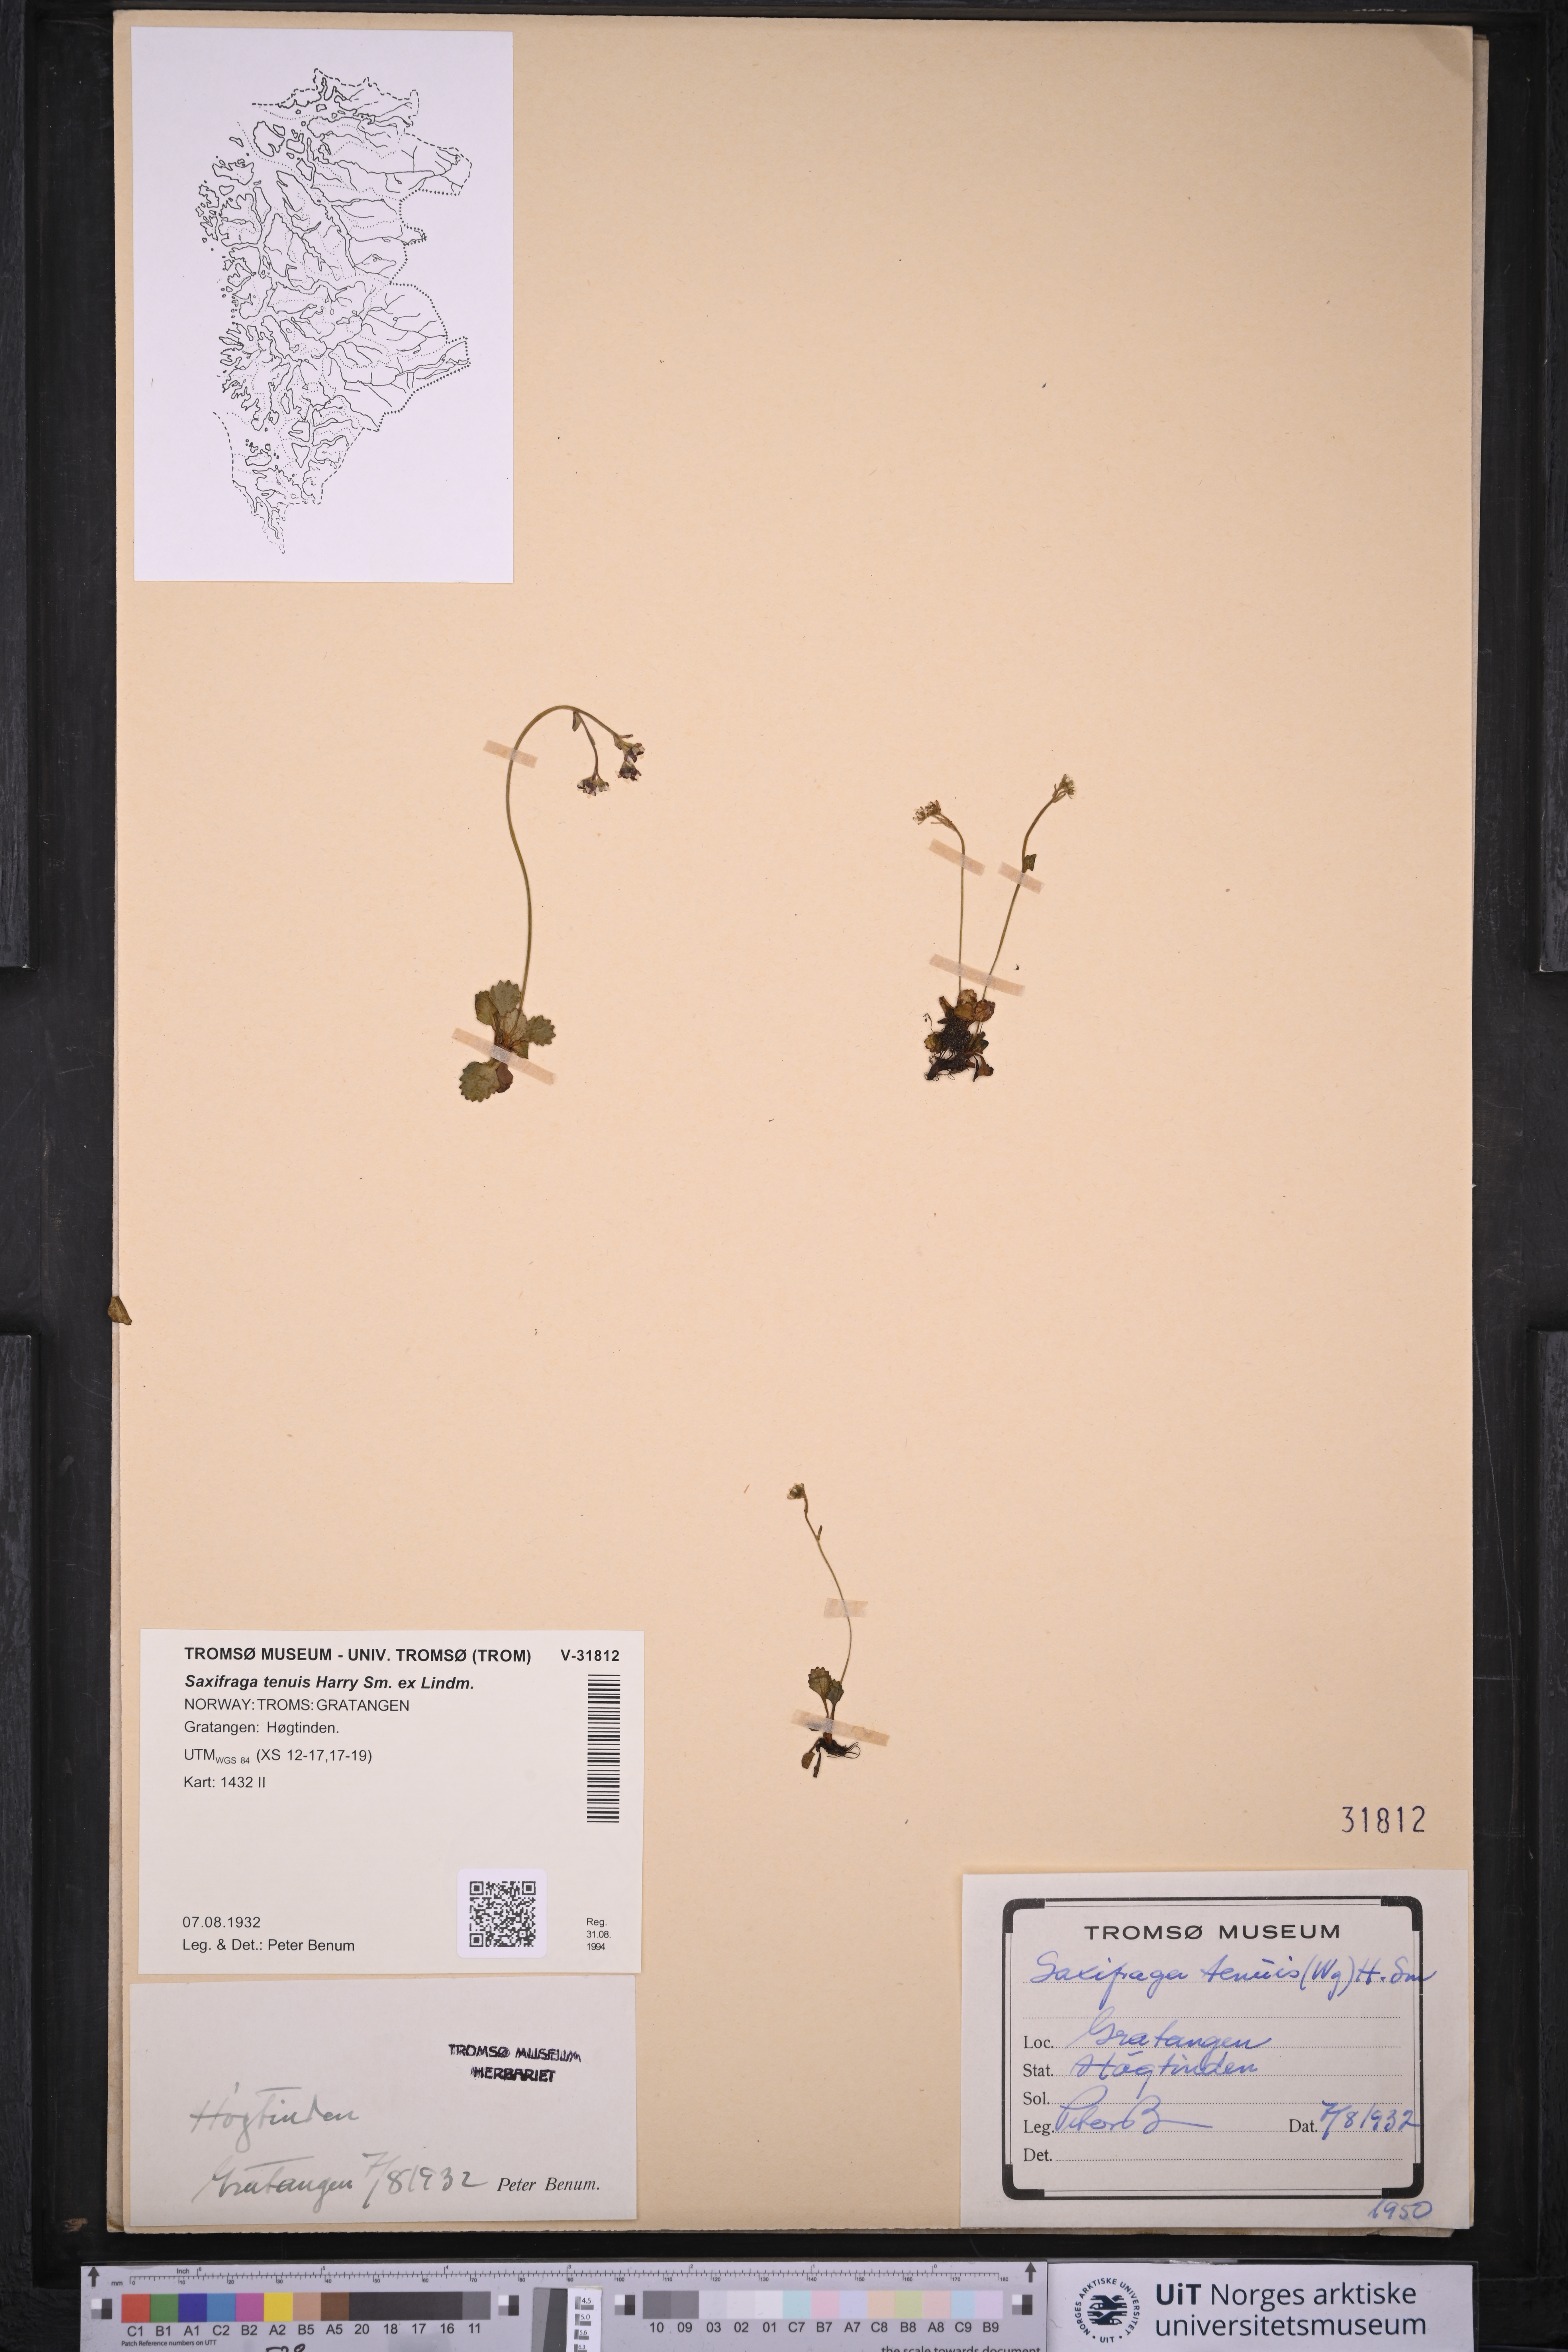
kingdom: Plantae
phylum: Tracheophyta
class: Magnoliopsida
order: Saxifragales
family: Saxifragaceae
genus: Micranthes
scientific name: Micranthes tenuis
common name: Ottertail pass saxifrage
